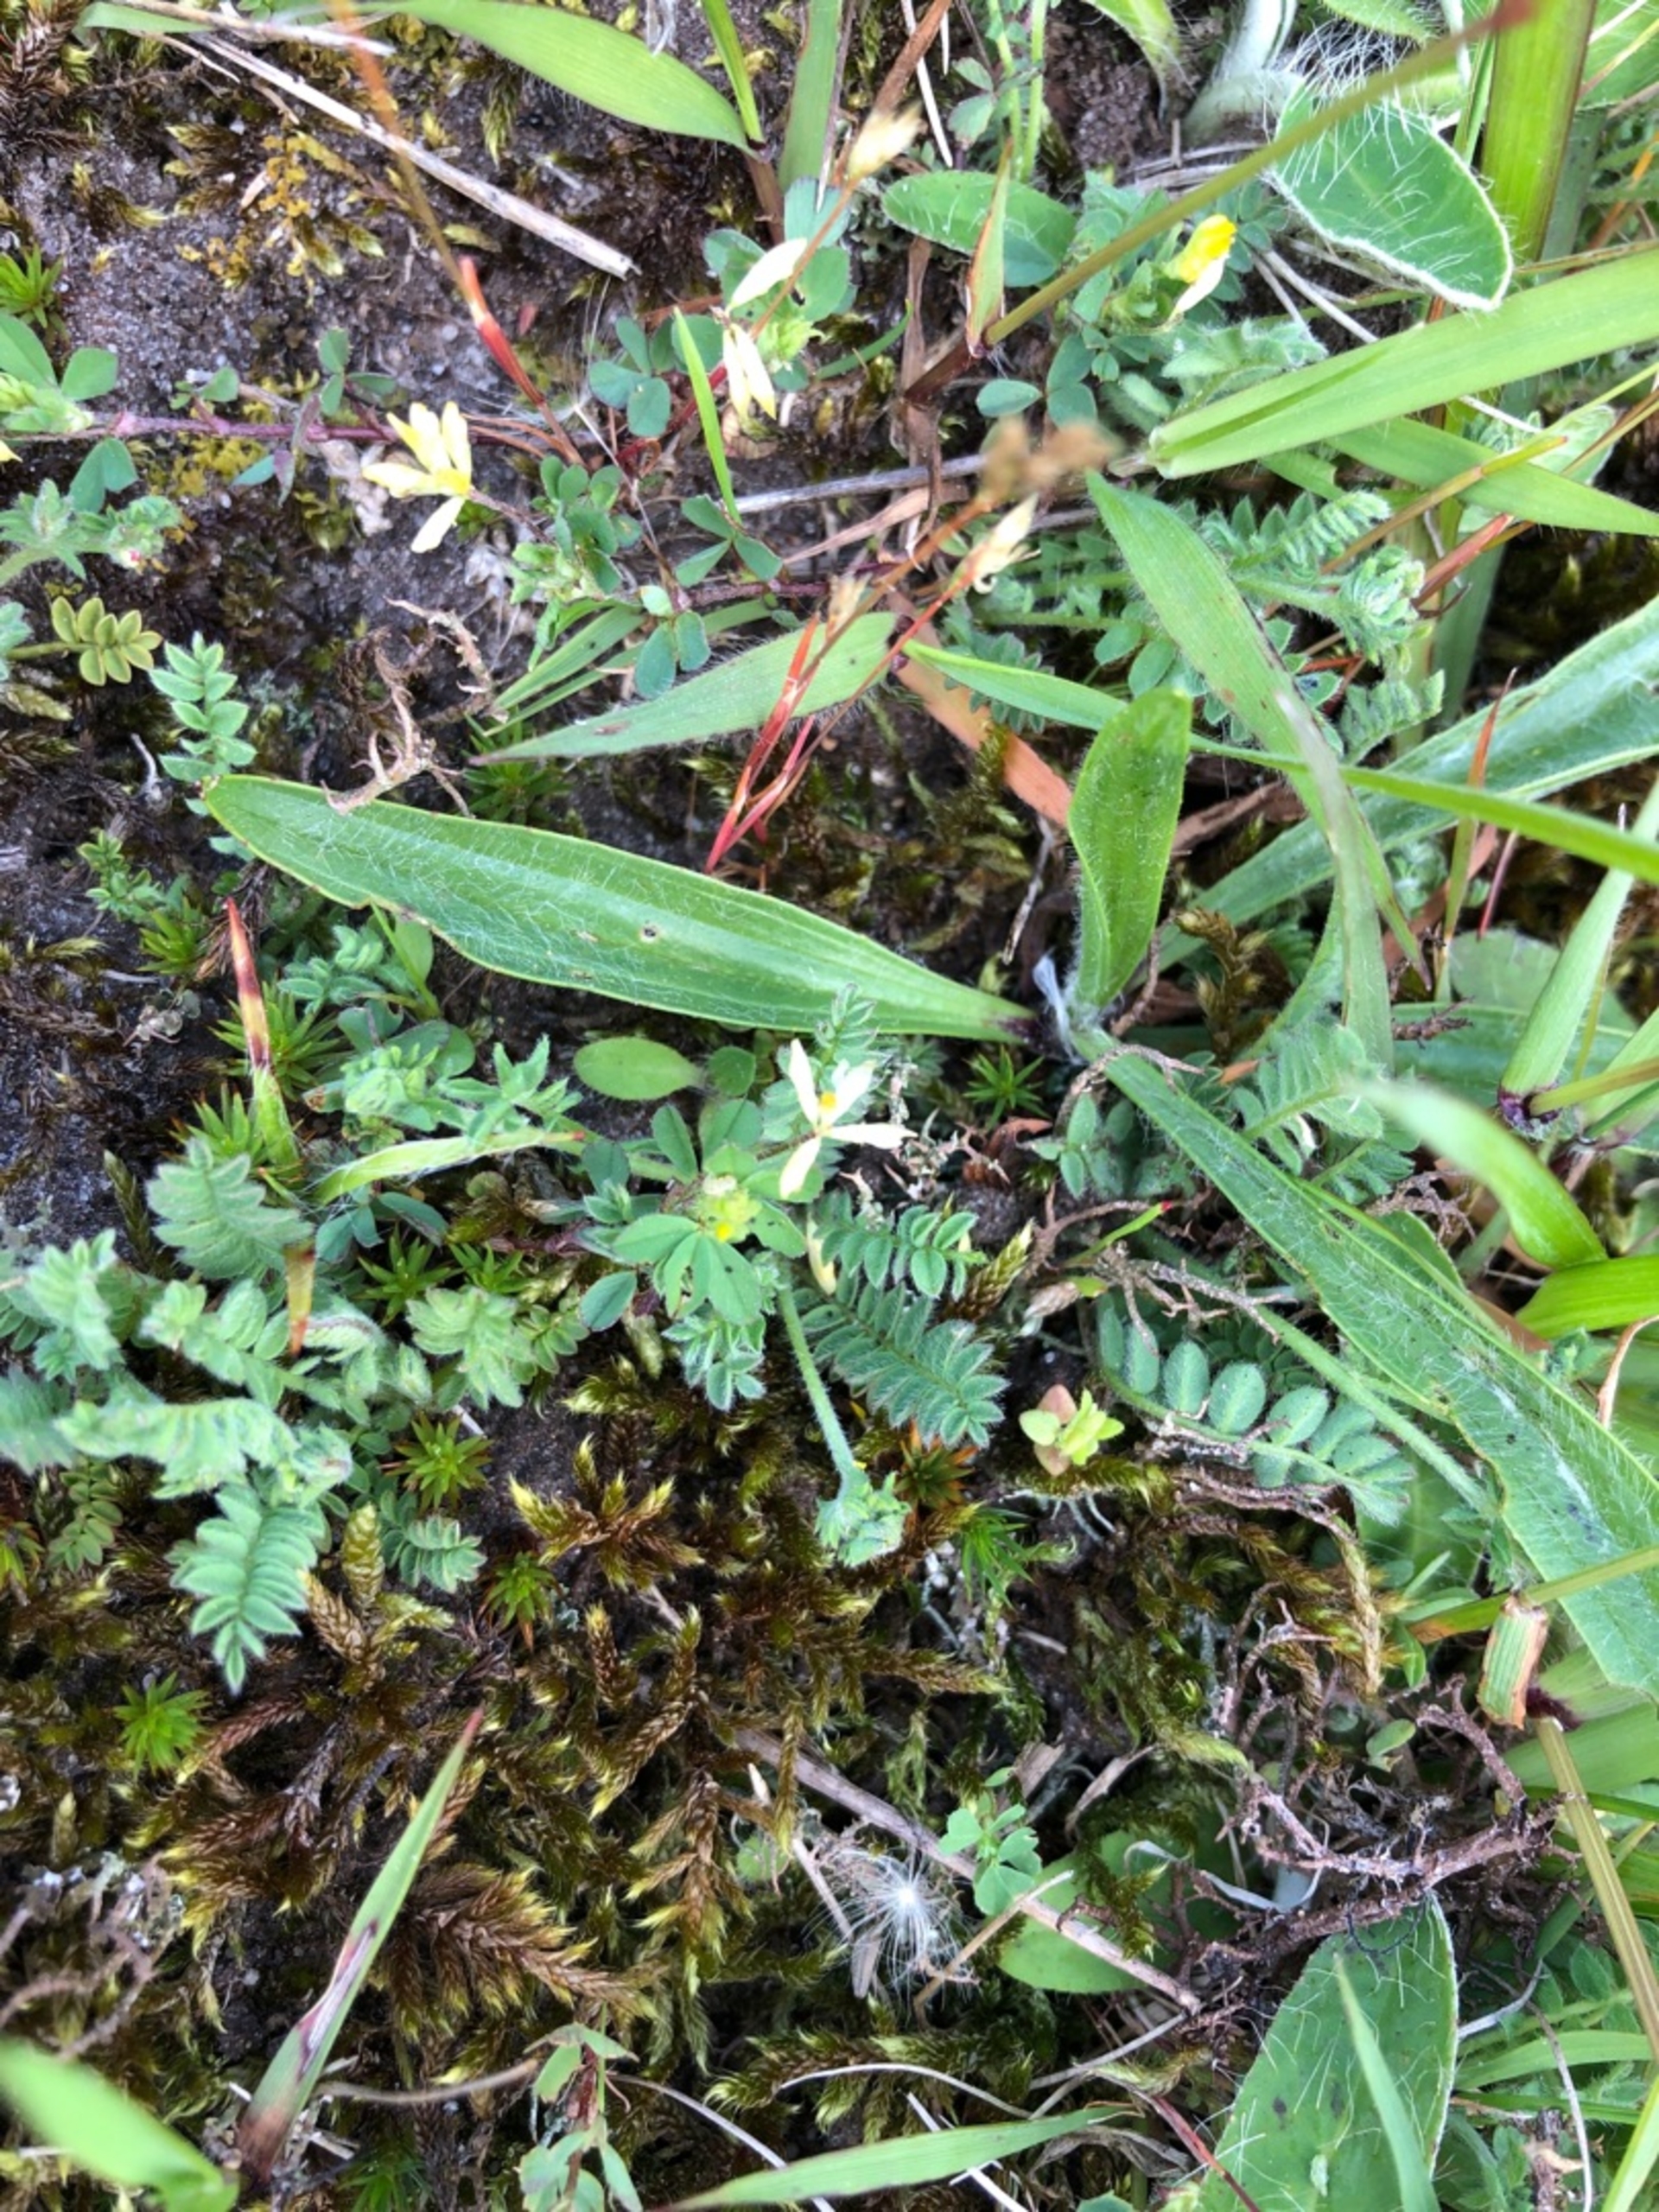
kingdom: Plantae
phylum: Tracheophyta
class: Magnoliopsida
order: Fabales
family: Fabaceae
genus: Ornithopus
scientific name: Ornithopus perpusillus
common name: Liden fugleklo
